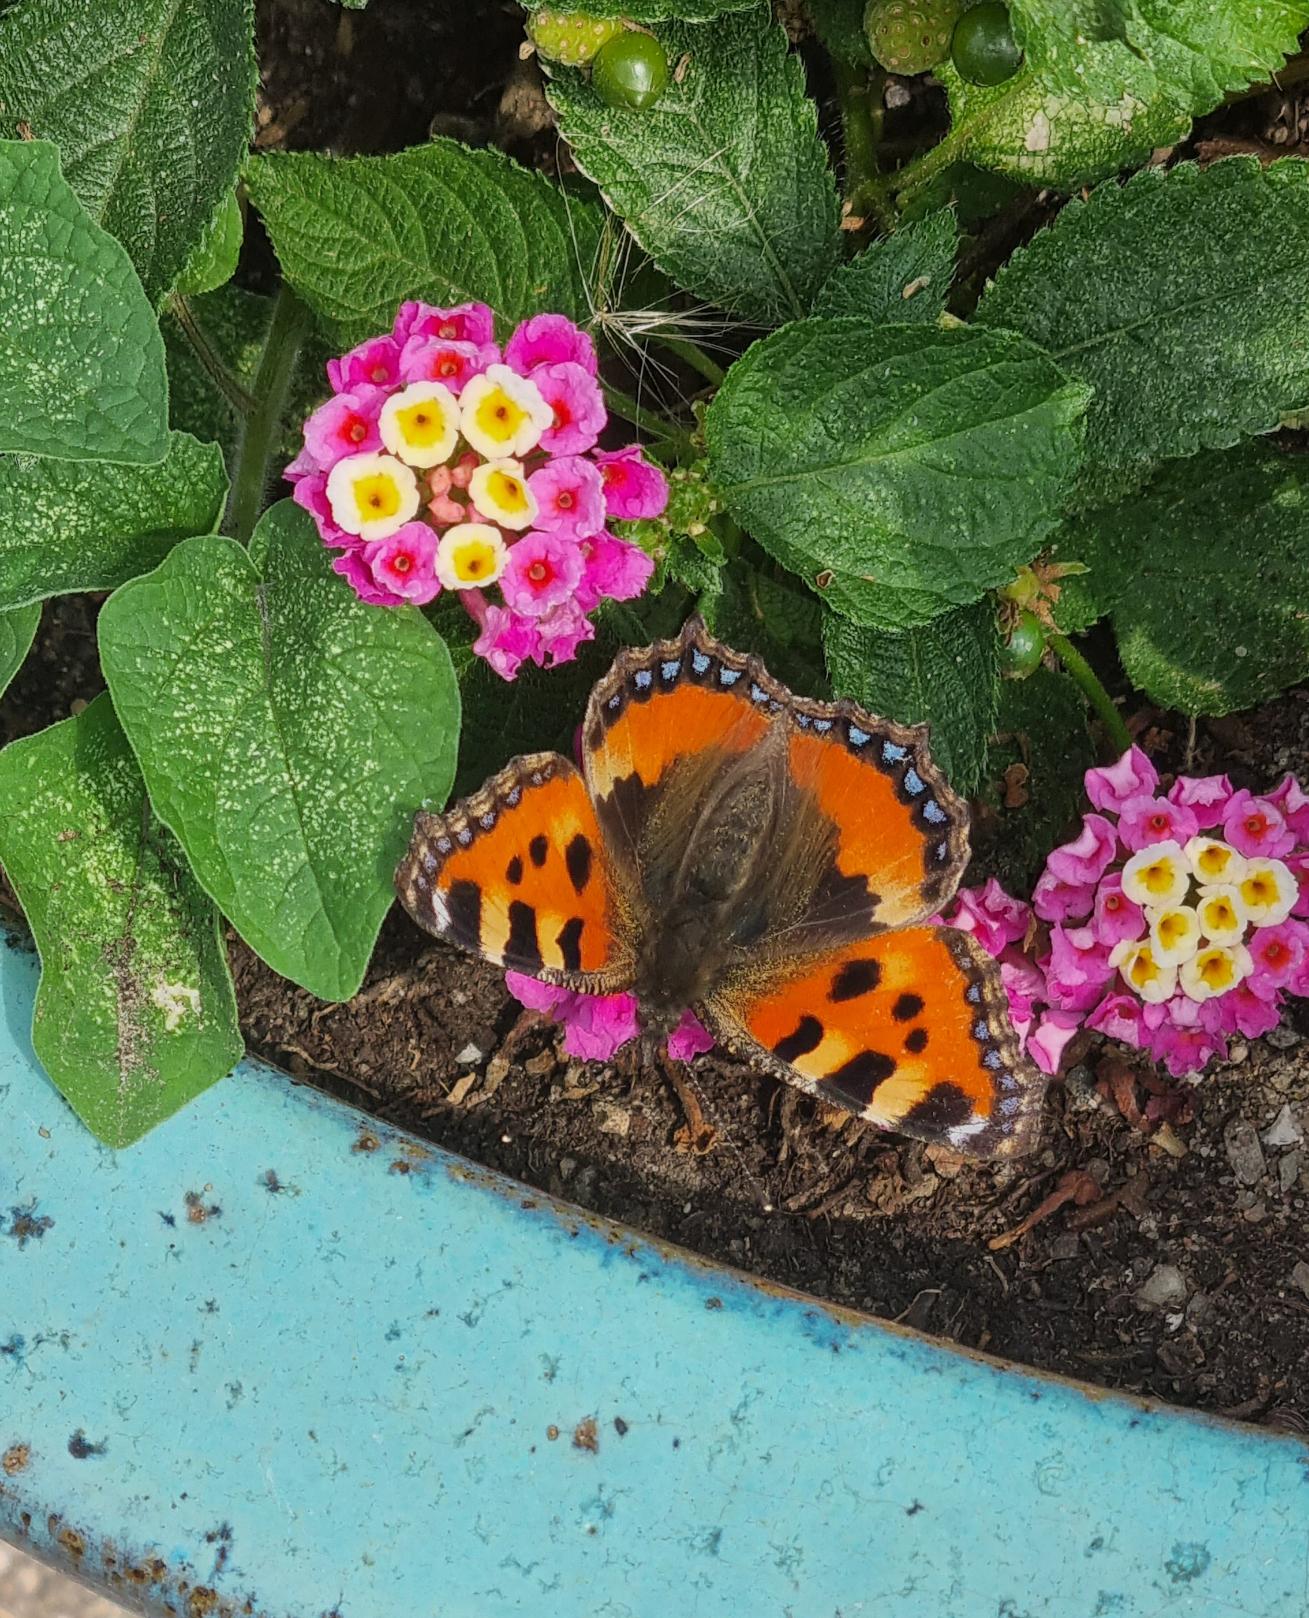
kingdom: Animalia
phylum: Arthropoda
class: Insecta
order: Lepidoptera
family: Nymphalidae
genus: Aglais
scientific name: Aglais urticae
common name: Nældens takvinge
